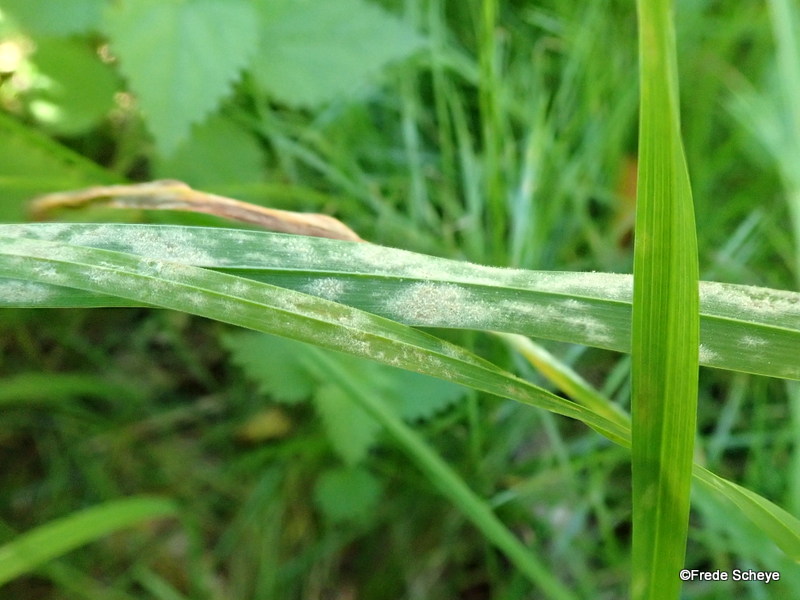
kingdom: Fungi
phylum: Ascomycota
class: Leotiomycetes
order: Helotiales
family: Erysiphaceae
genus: Blumeria
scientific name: Blumeria graminis
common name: græs-meldug
